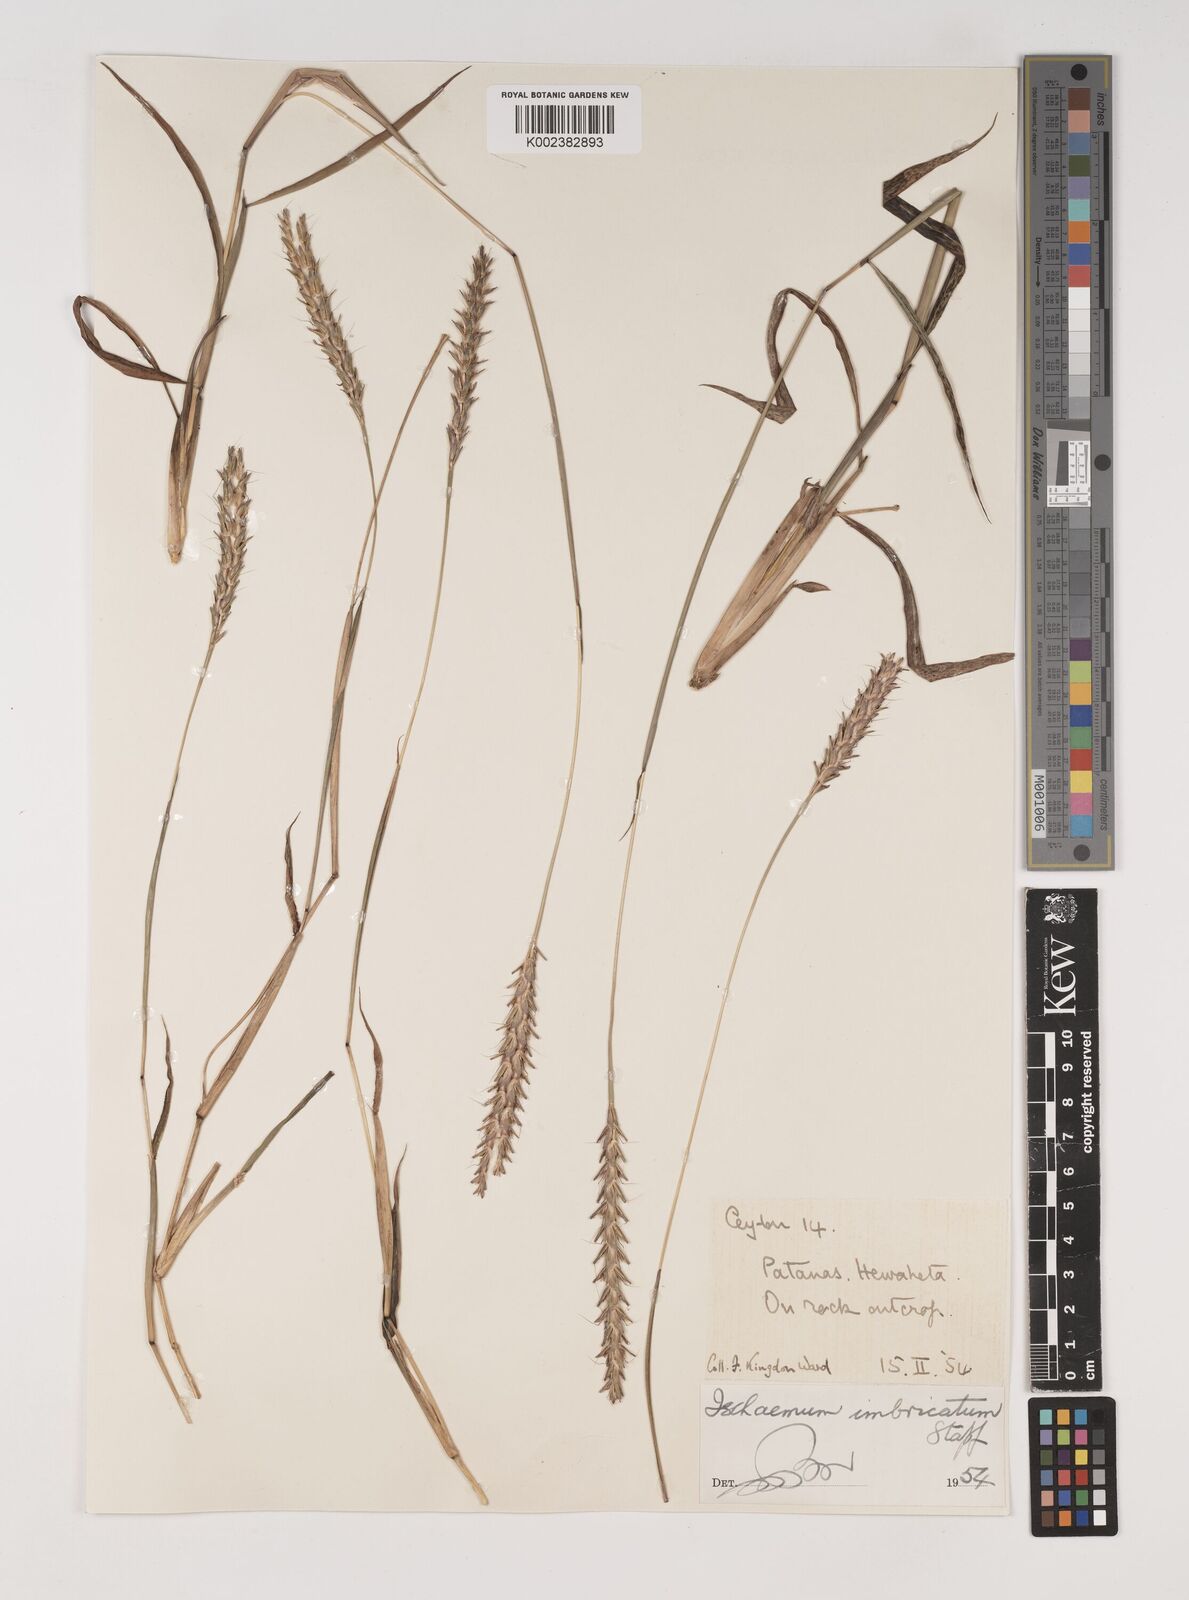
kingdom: Plantae
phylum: Tracheophyta
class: Liliopsida
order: Poales
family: Poaceae
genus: Ischaemum
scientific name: Ischaemum
